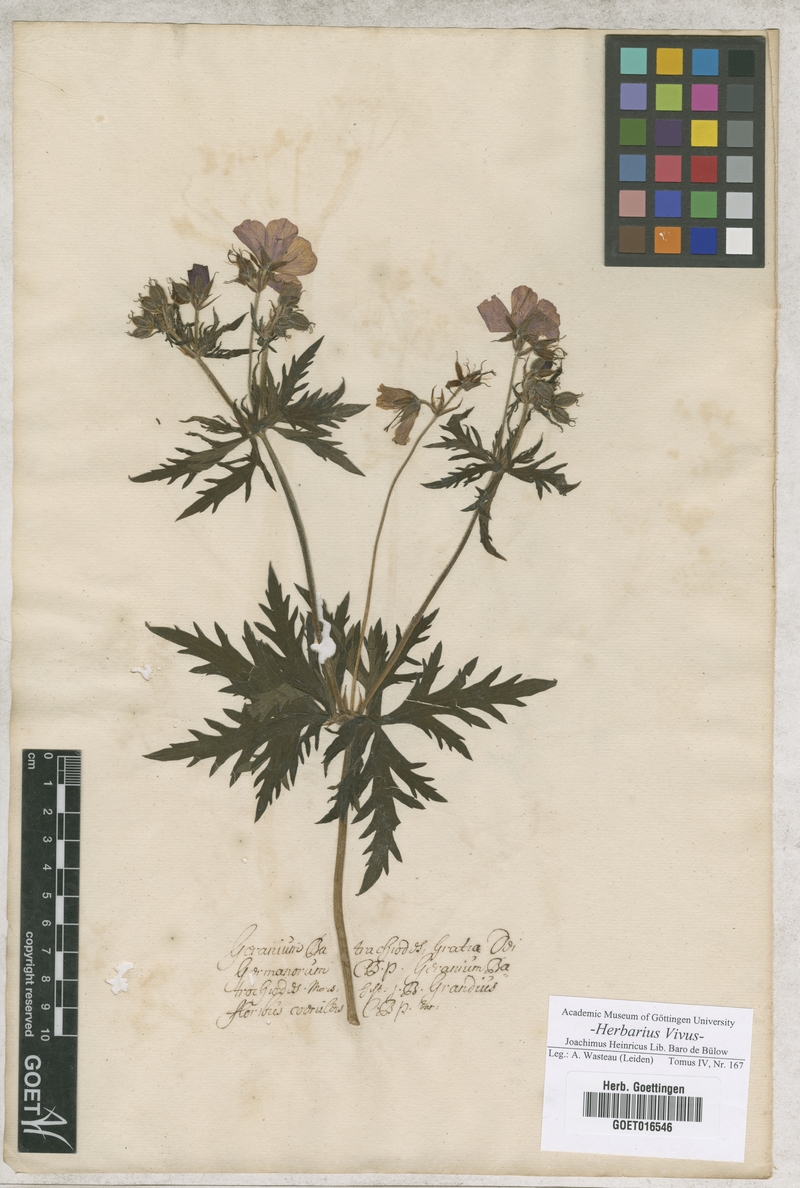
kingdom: Plantae
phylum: Tracheophyta
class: Magnoliopsida
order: Geraniales
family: Geraniaceae
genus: Geranium
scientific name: Geranium pratense
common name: Meadow crane's-bill
